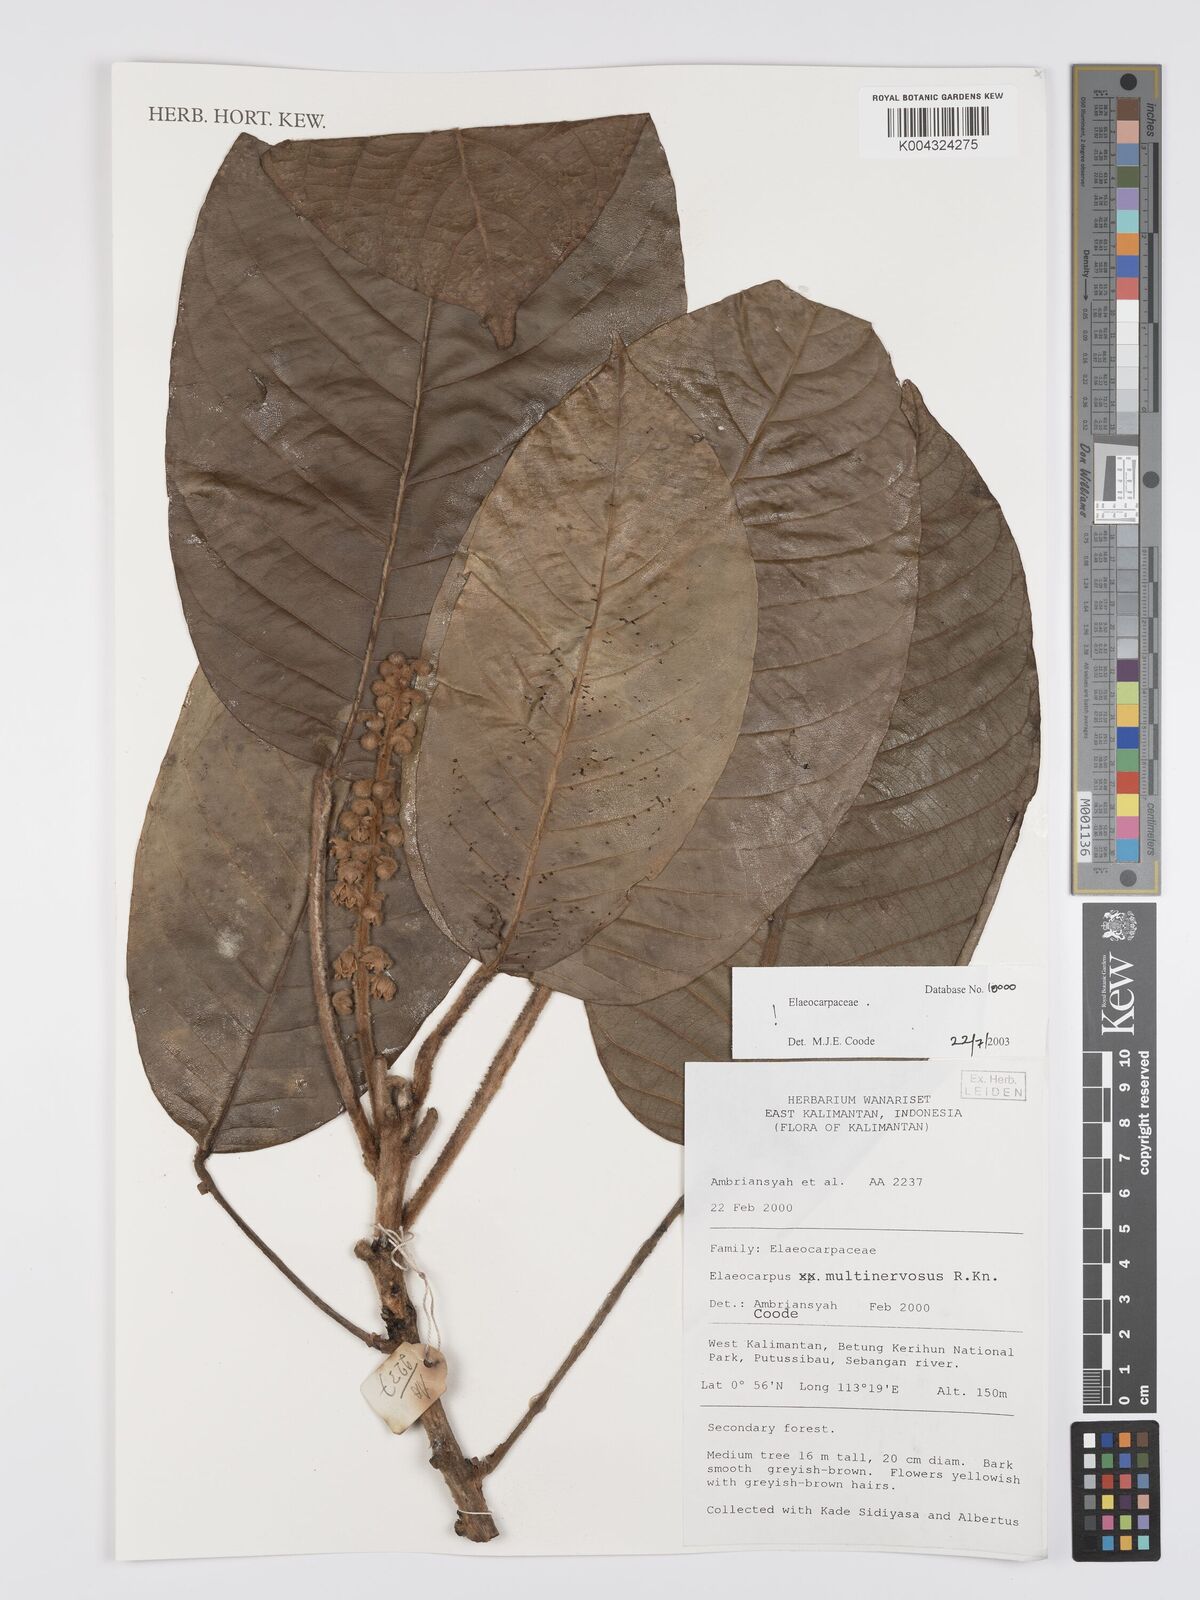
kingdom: Plantae
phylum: Tracheophyta
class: Magnoliopsida
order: Oxalidales
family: Elaeocarpaceae
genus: Elaeocarpus
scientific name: Elaeocarpus multinervosus
